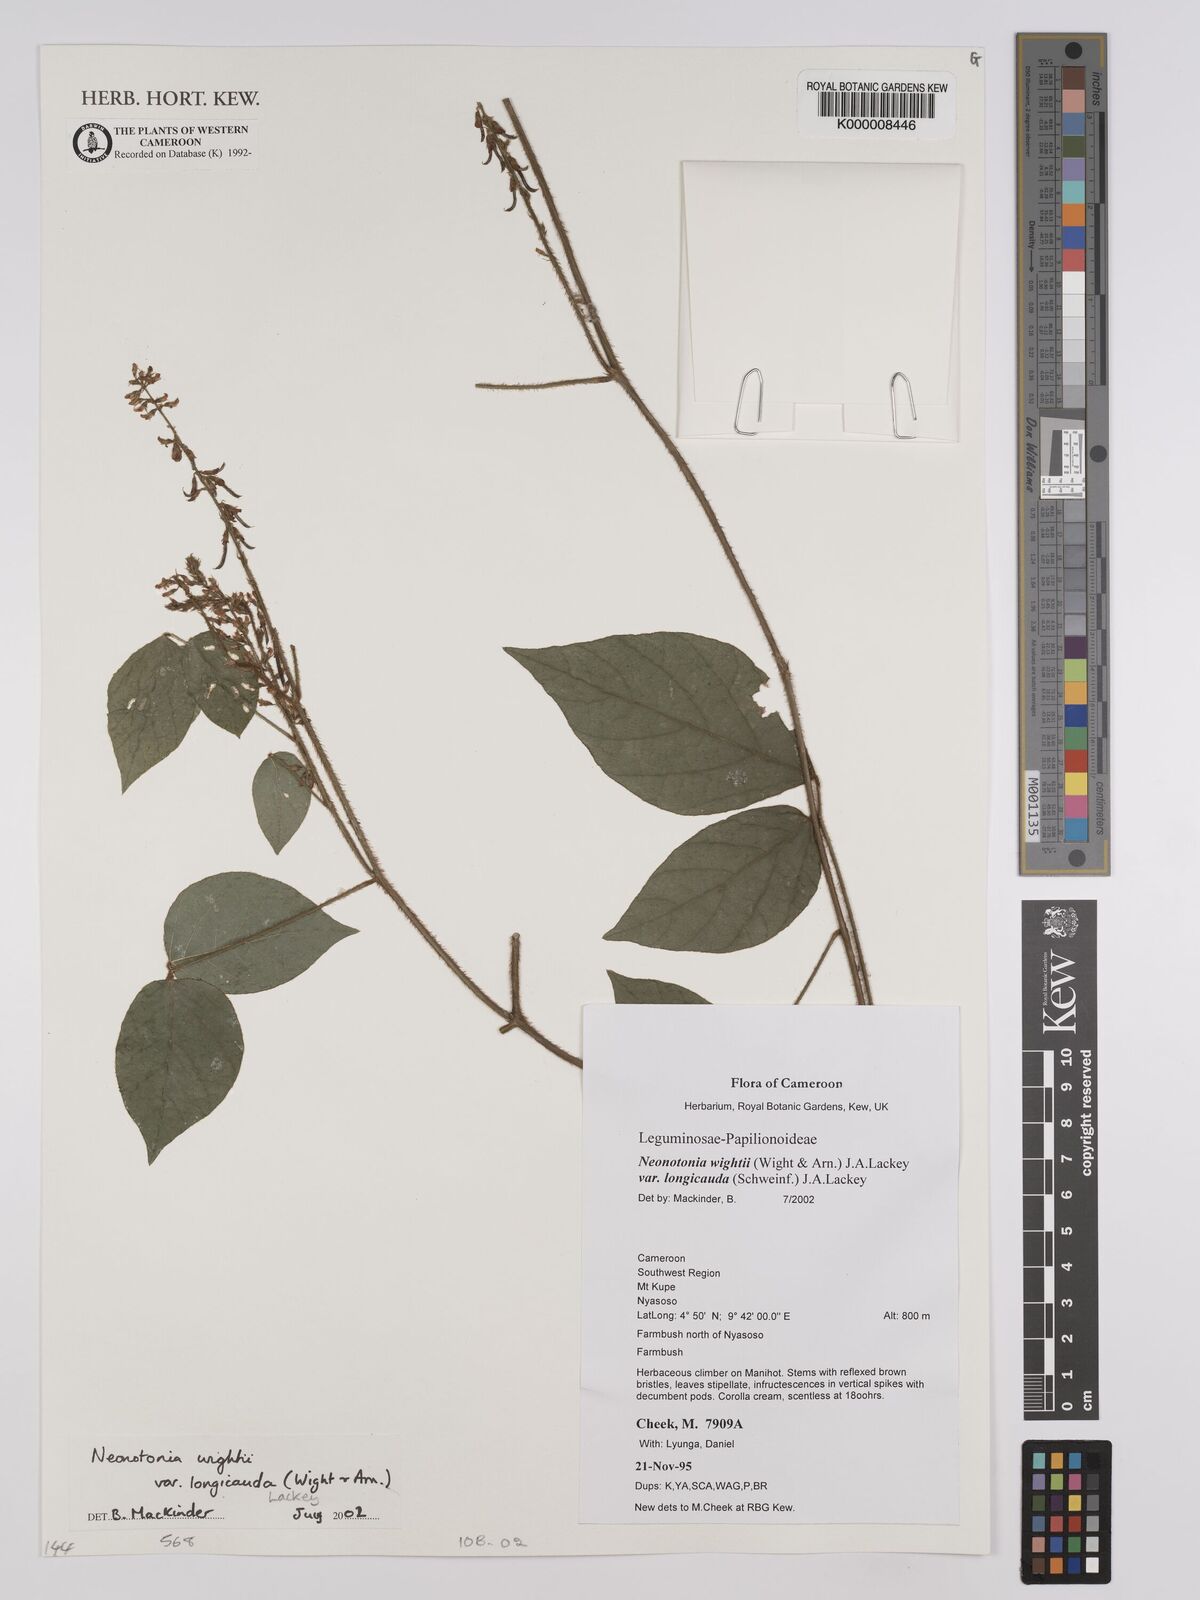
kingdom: Plantae
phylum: Tracheophyta
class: Magnoliopsida
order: Fabales
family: Fabaceae
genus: Neonotonia
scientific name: Neonotonia wightii
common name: Perennial soybean
